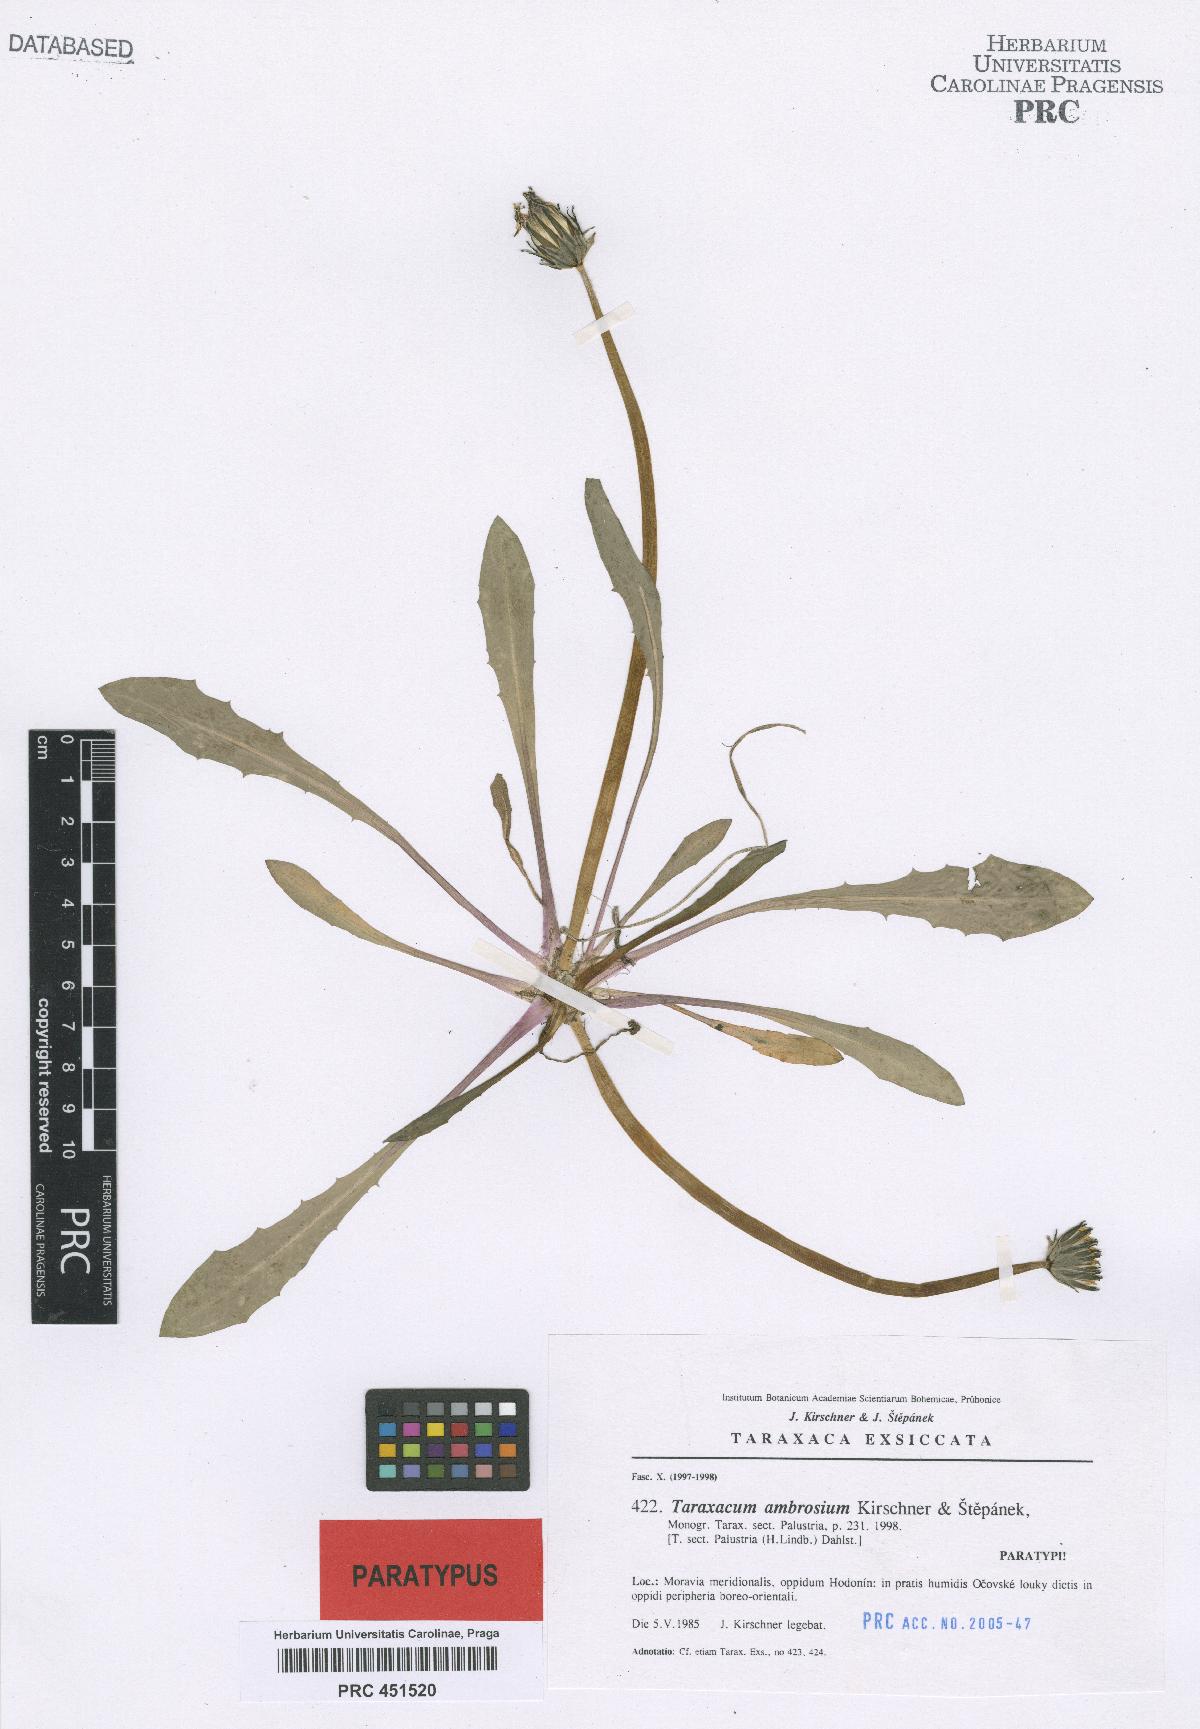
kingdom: Plantae
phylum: Tracheophyta
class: Magnoliopsida
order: Asterales
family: Asteraceae
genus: Taraxacum
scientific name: Taraxacum ambrosium
